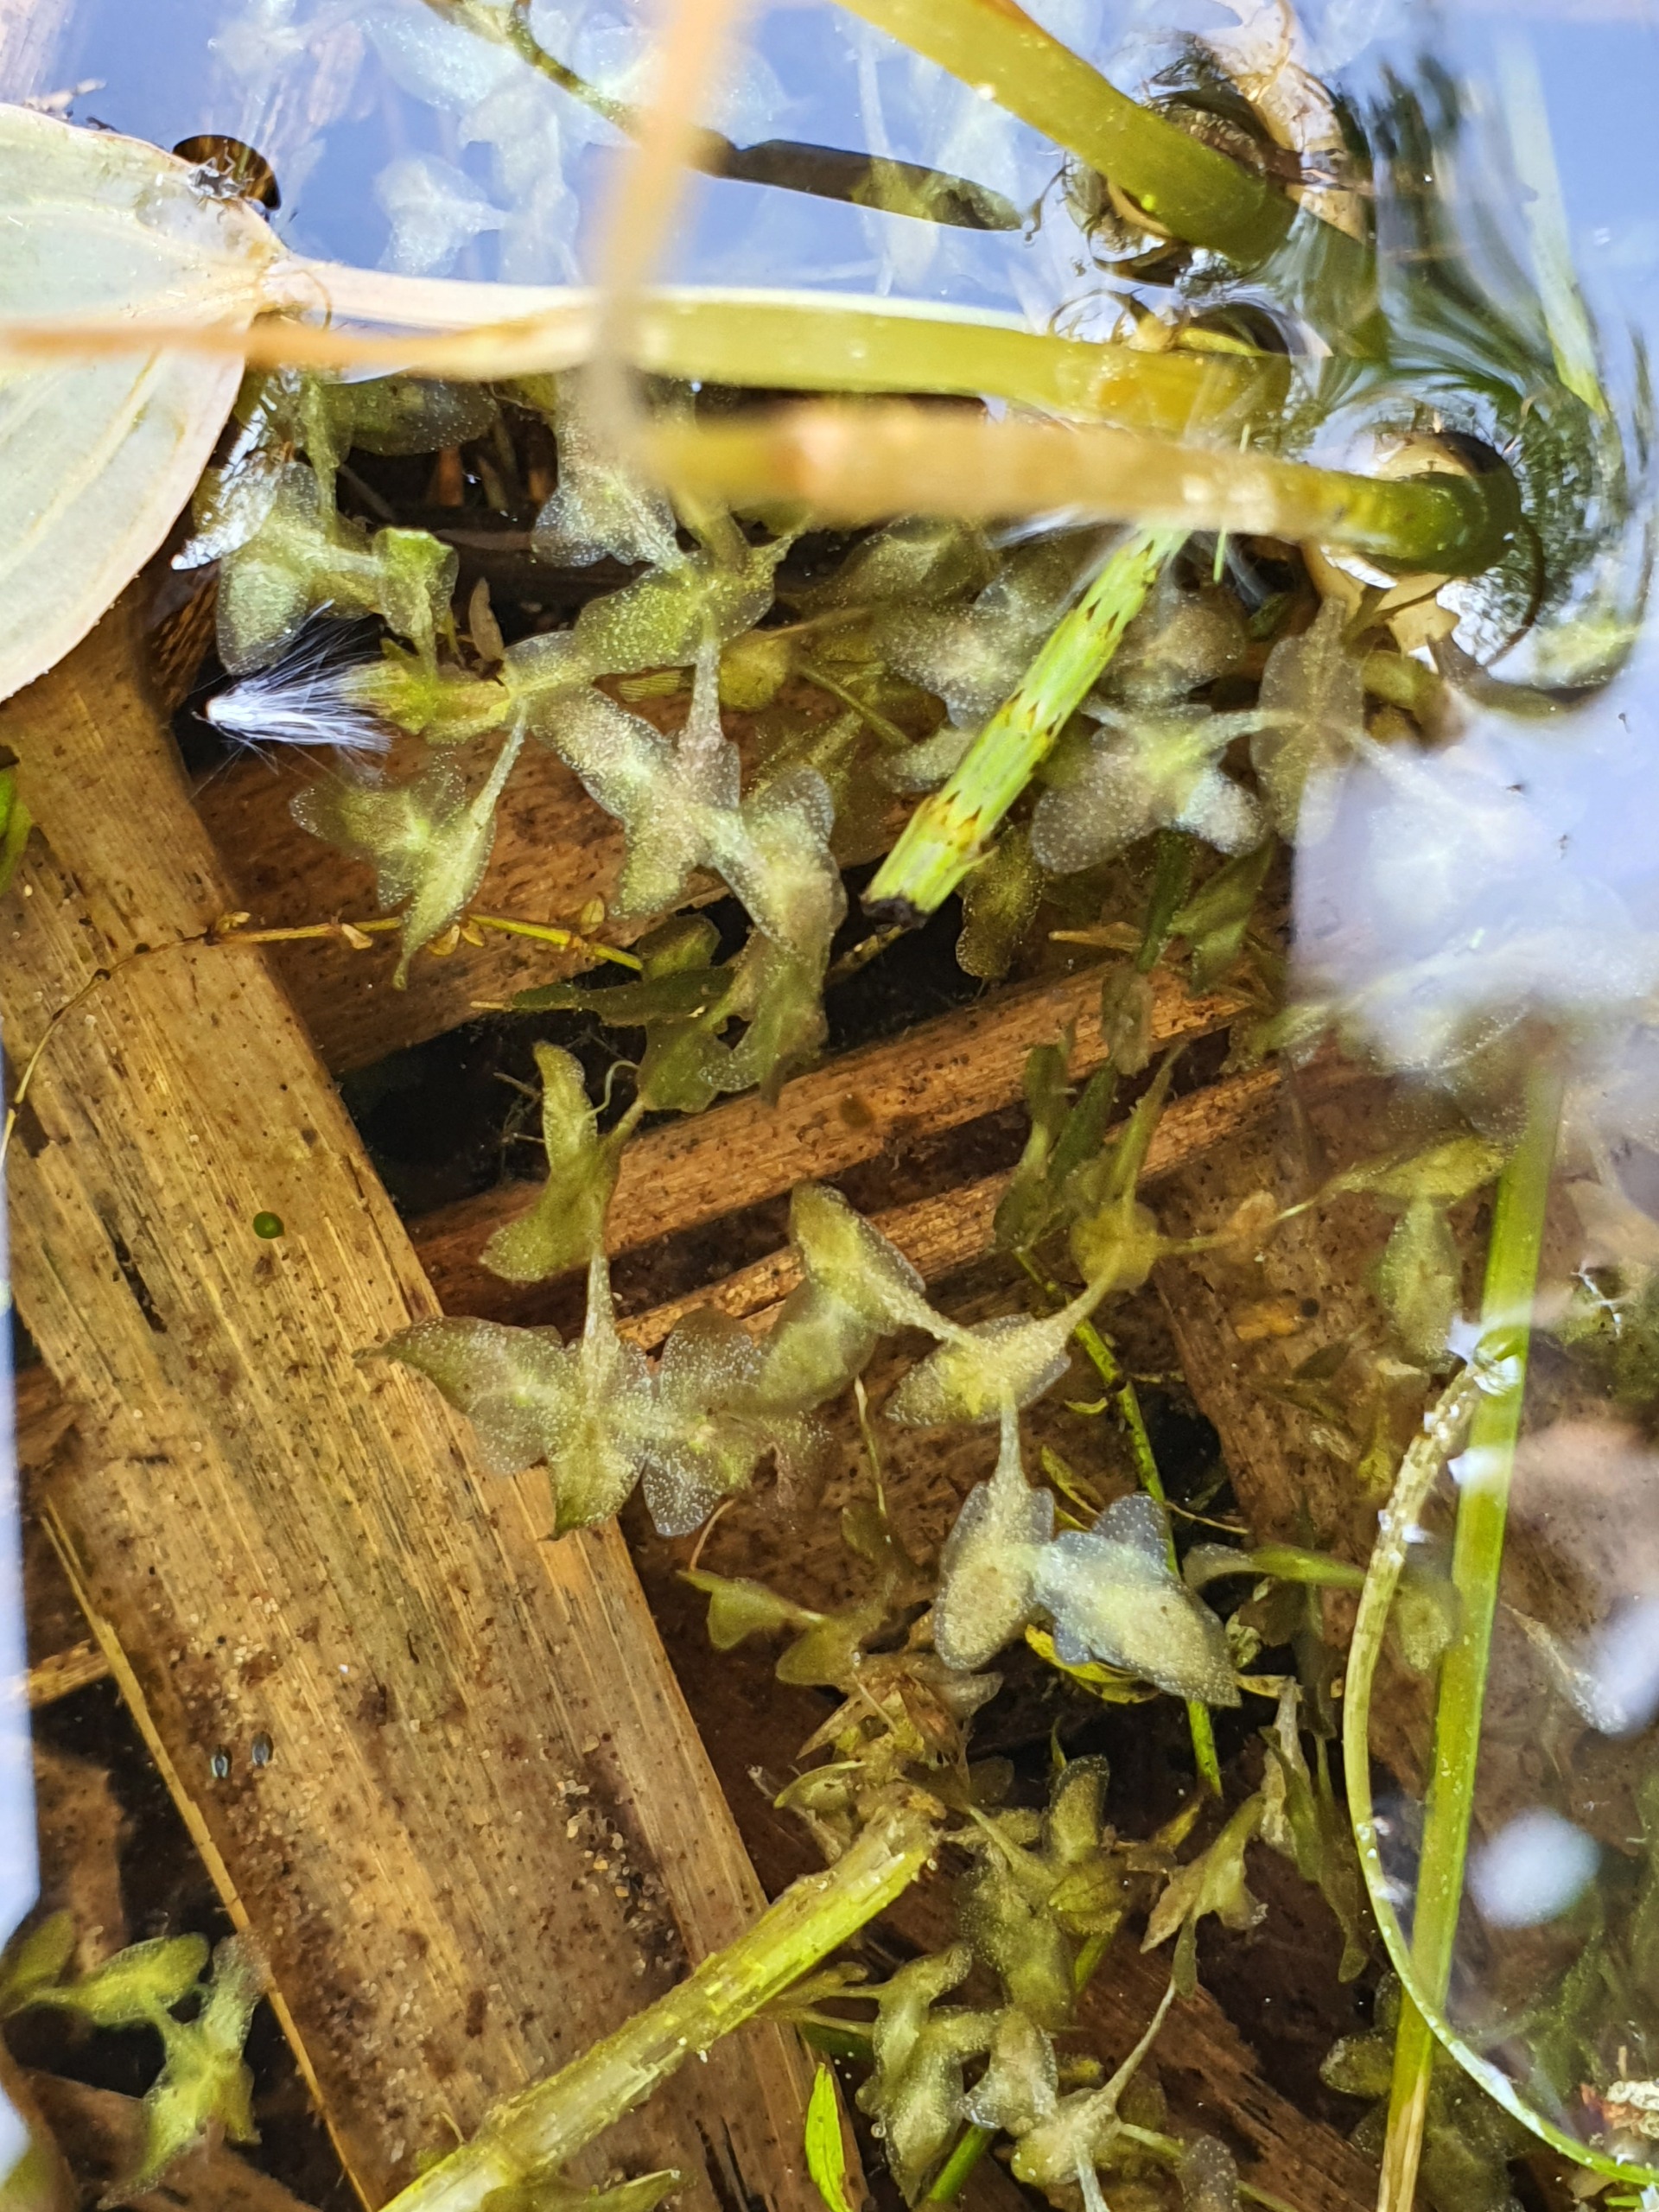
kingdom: Plantae
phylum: Tracheophyta
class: Liliopsida
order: Alismatales
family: Araceae
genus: Lemna
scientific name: Lemna trisulca
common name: Kors-andemad
